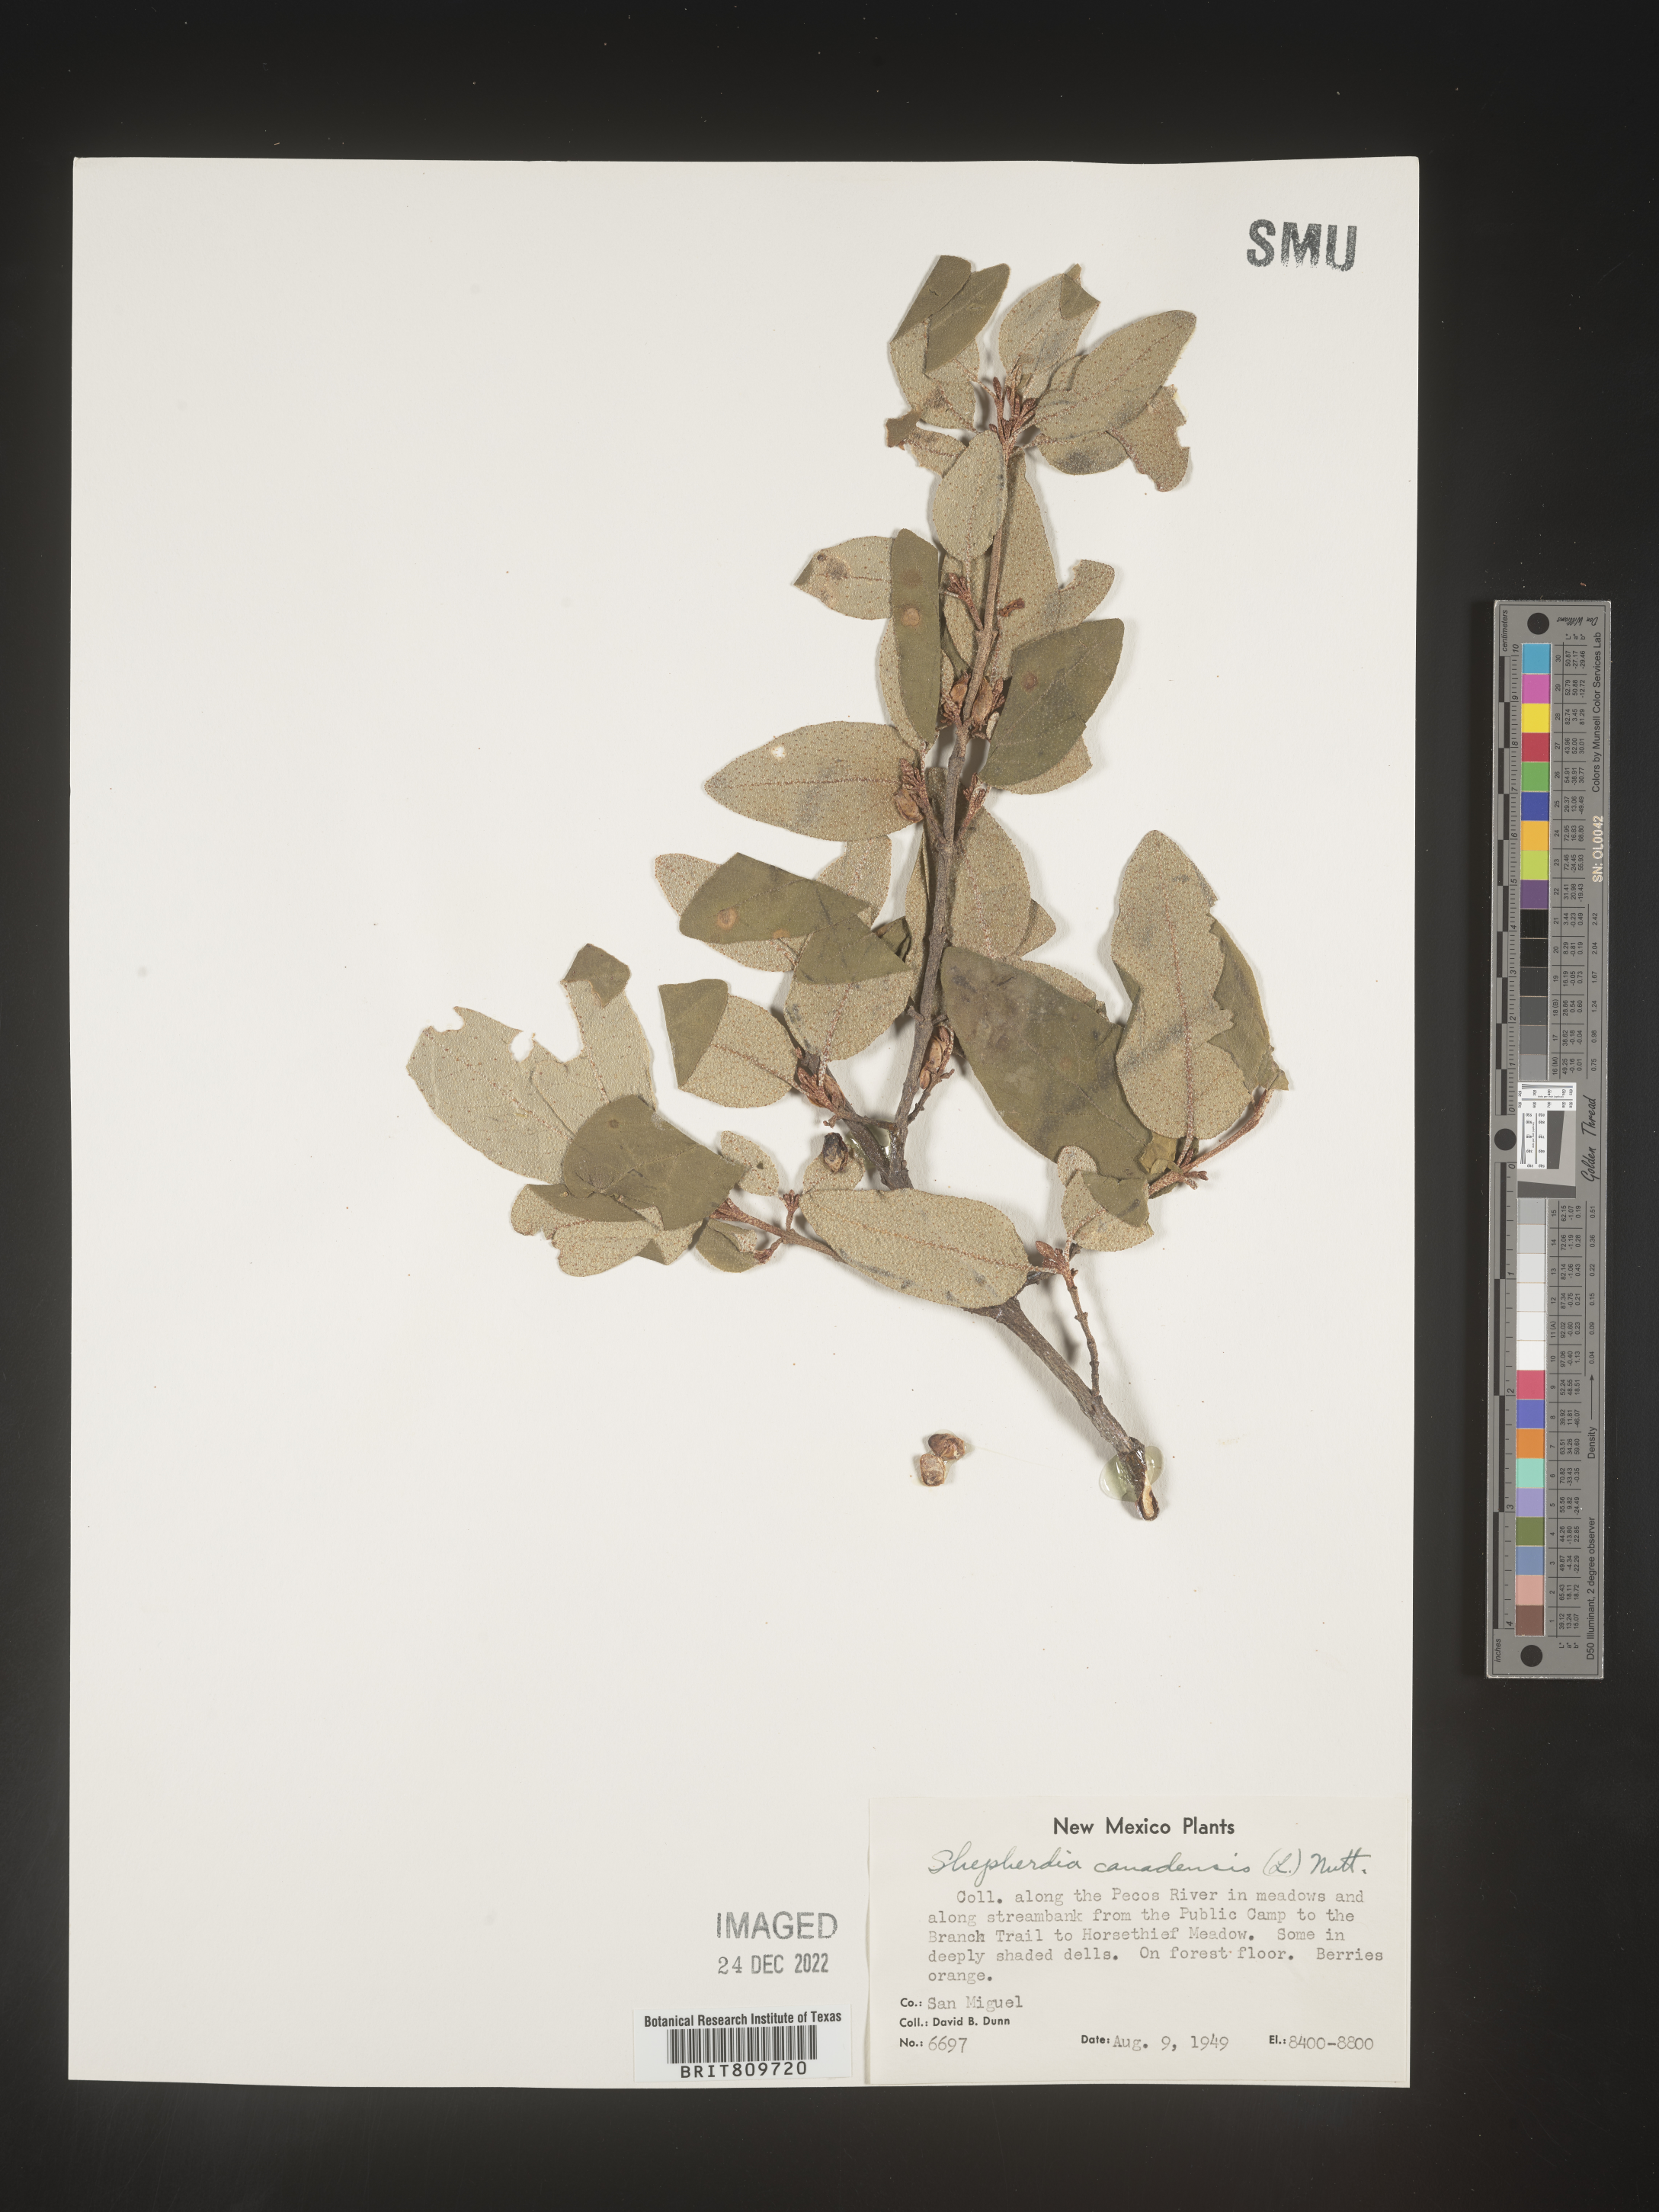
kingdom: Plantae
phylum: Tracheophyta
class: Magnoliopsida
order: Rosales
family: Elaeagnaceae
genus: Shepherdia
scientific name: Shepherdia canadensis
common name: Soapberry
